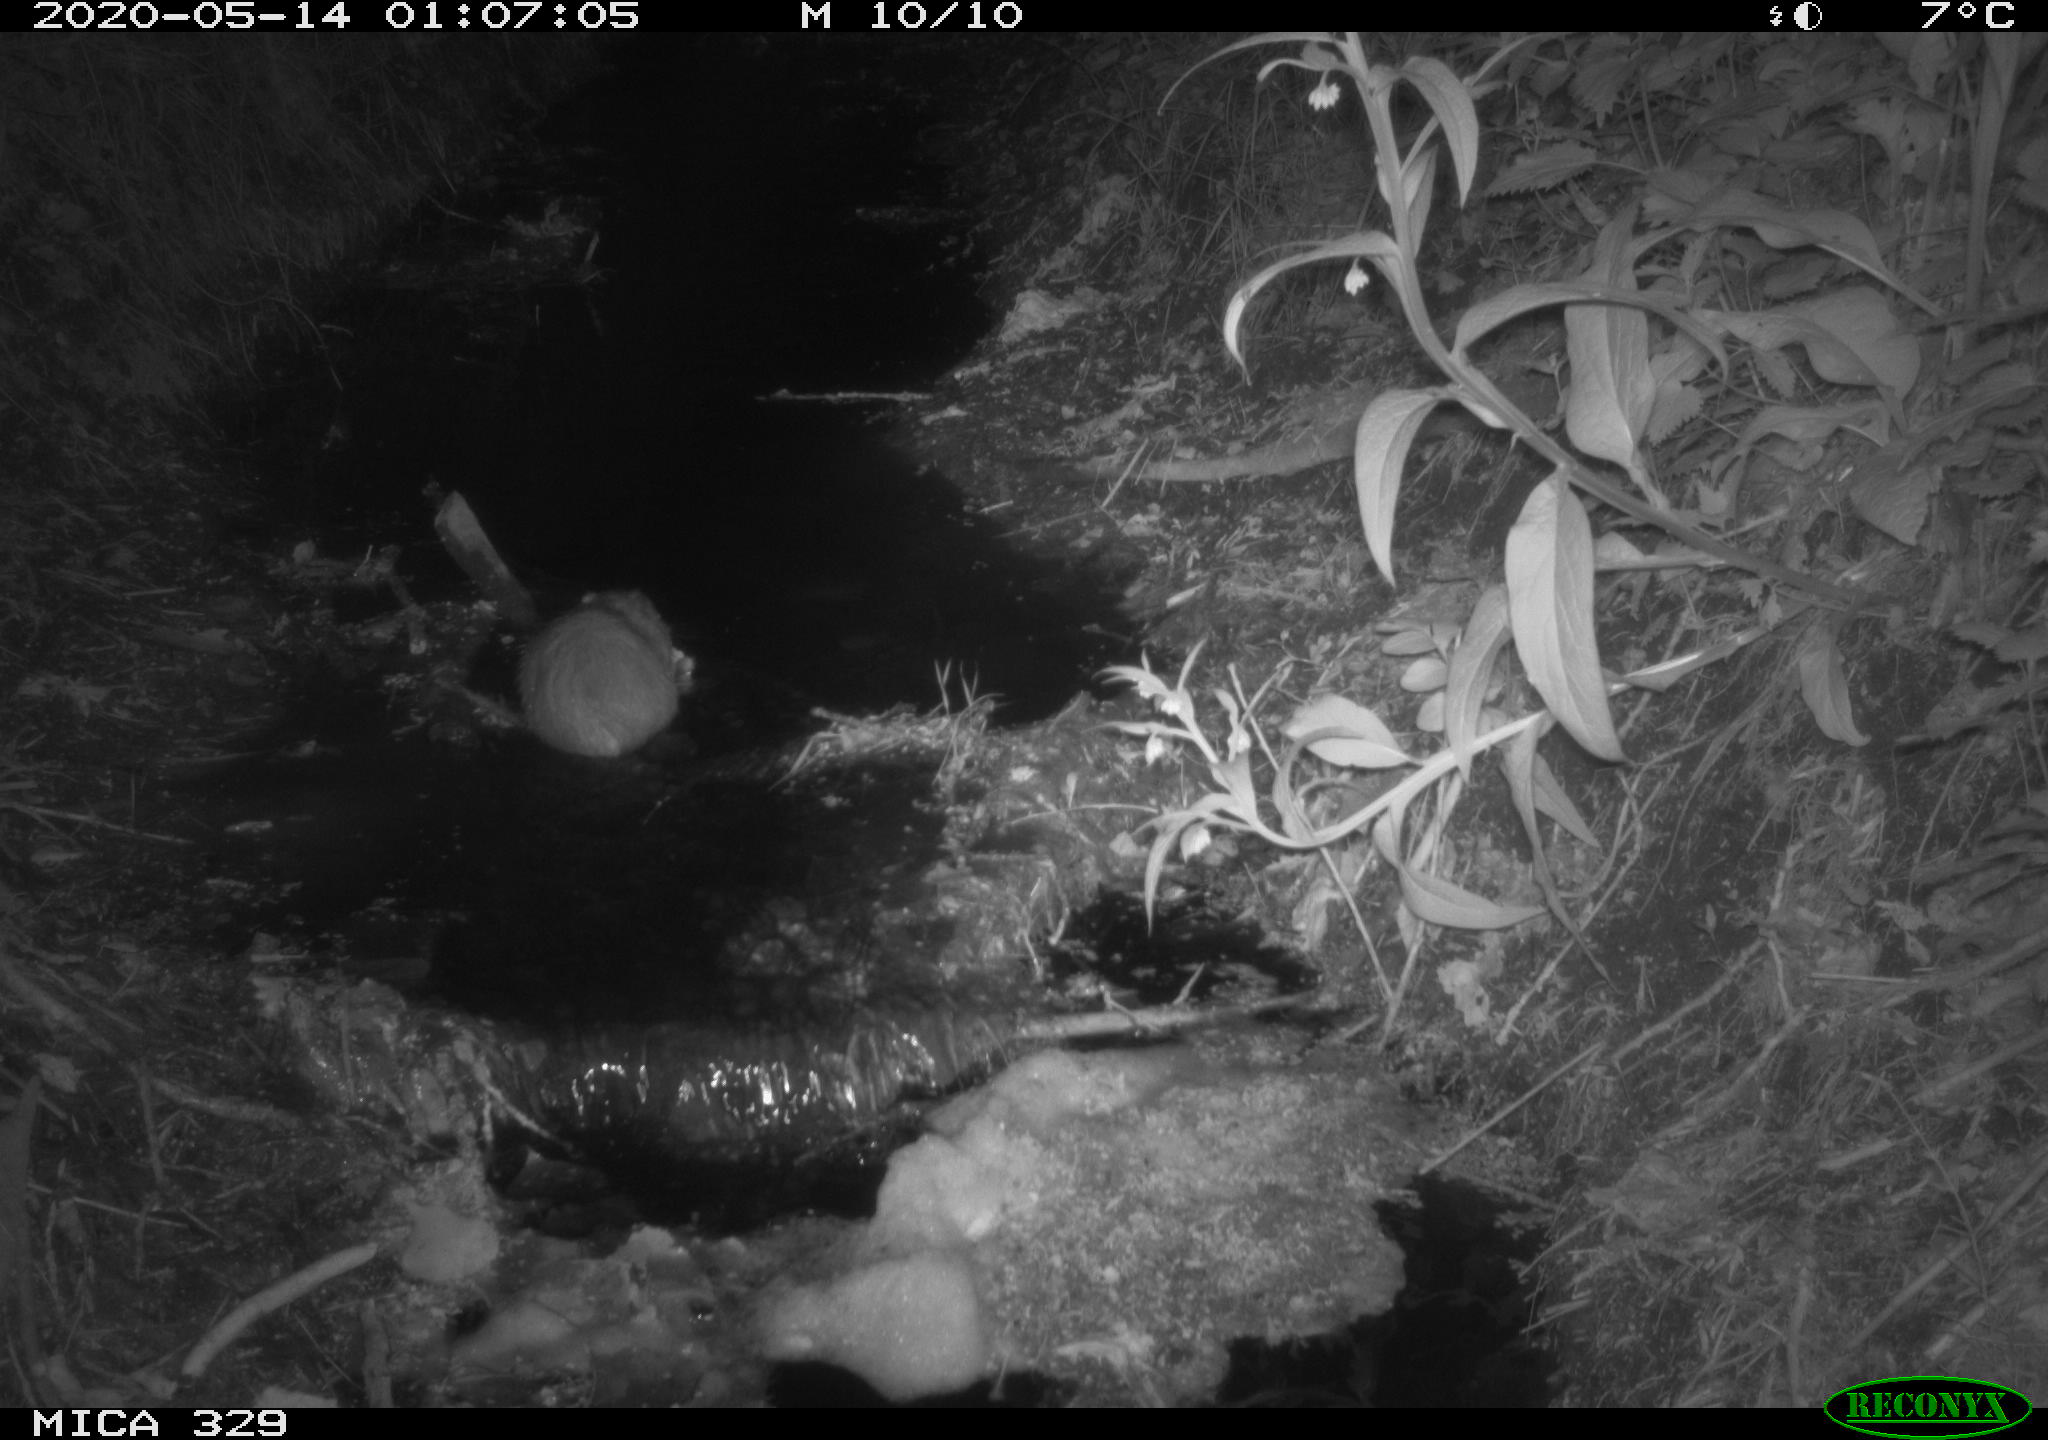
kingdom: Animalia
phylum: Chordata
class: Mammalia
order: Rodentia
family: Cricetidae
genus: Ondatra
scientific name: Ondatra zibethicus
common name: Muskrat
